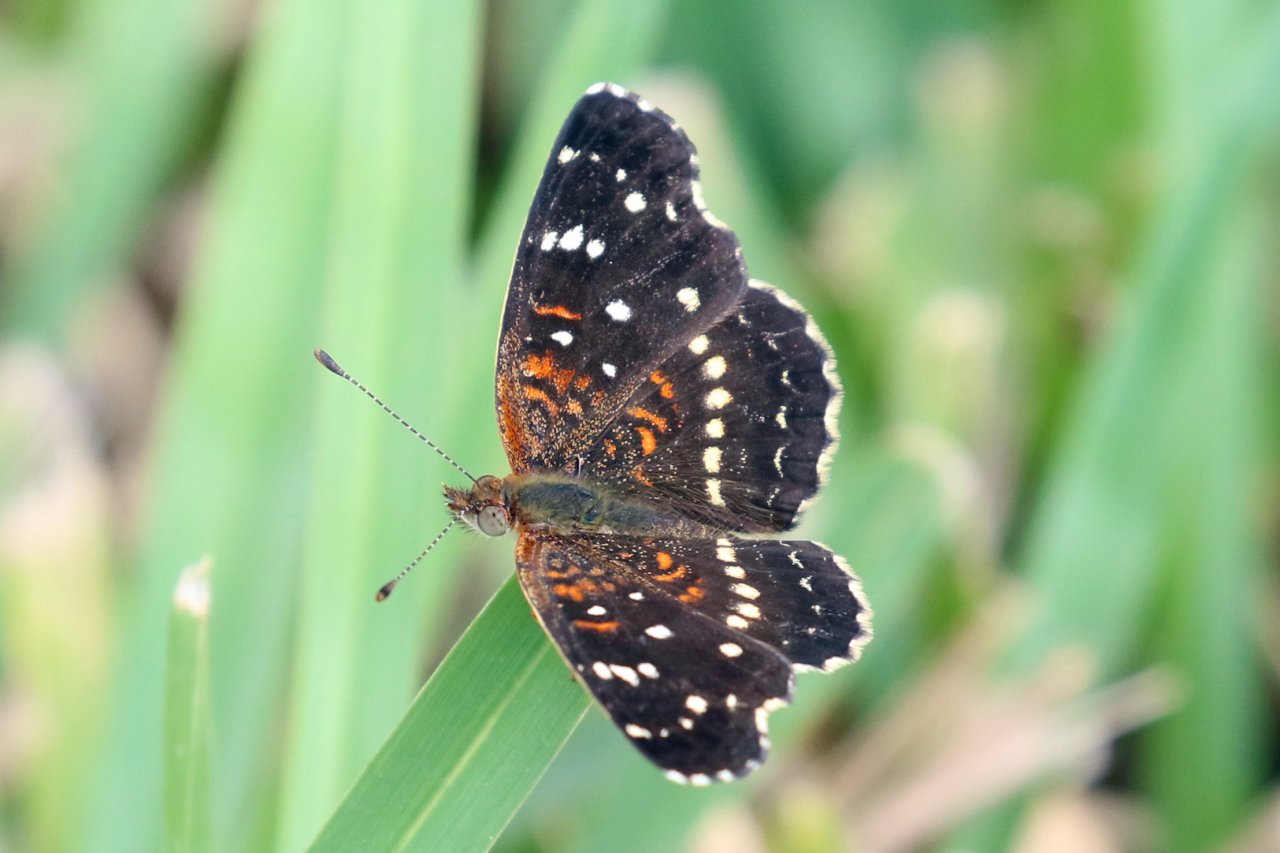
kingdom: Animalia
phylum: Arthropoda
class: Insecta
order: Lepidoptera
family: Nymphalidae
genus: Anthanassa
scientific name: Anthanassa texana
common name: Texan Crescent
